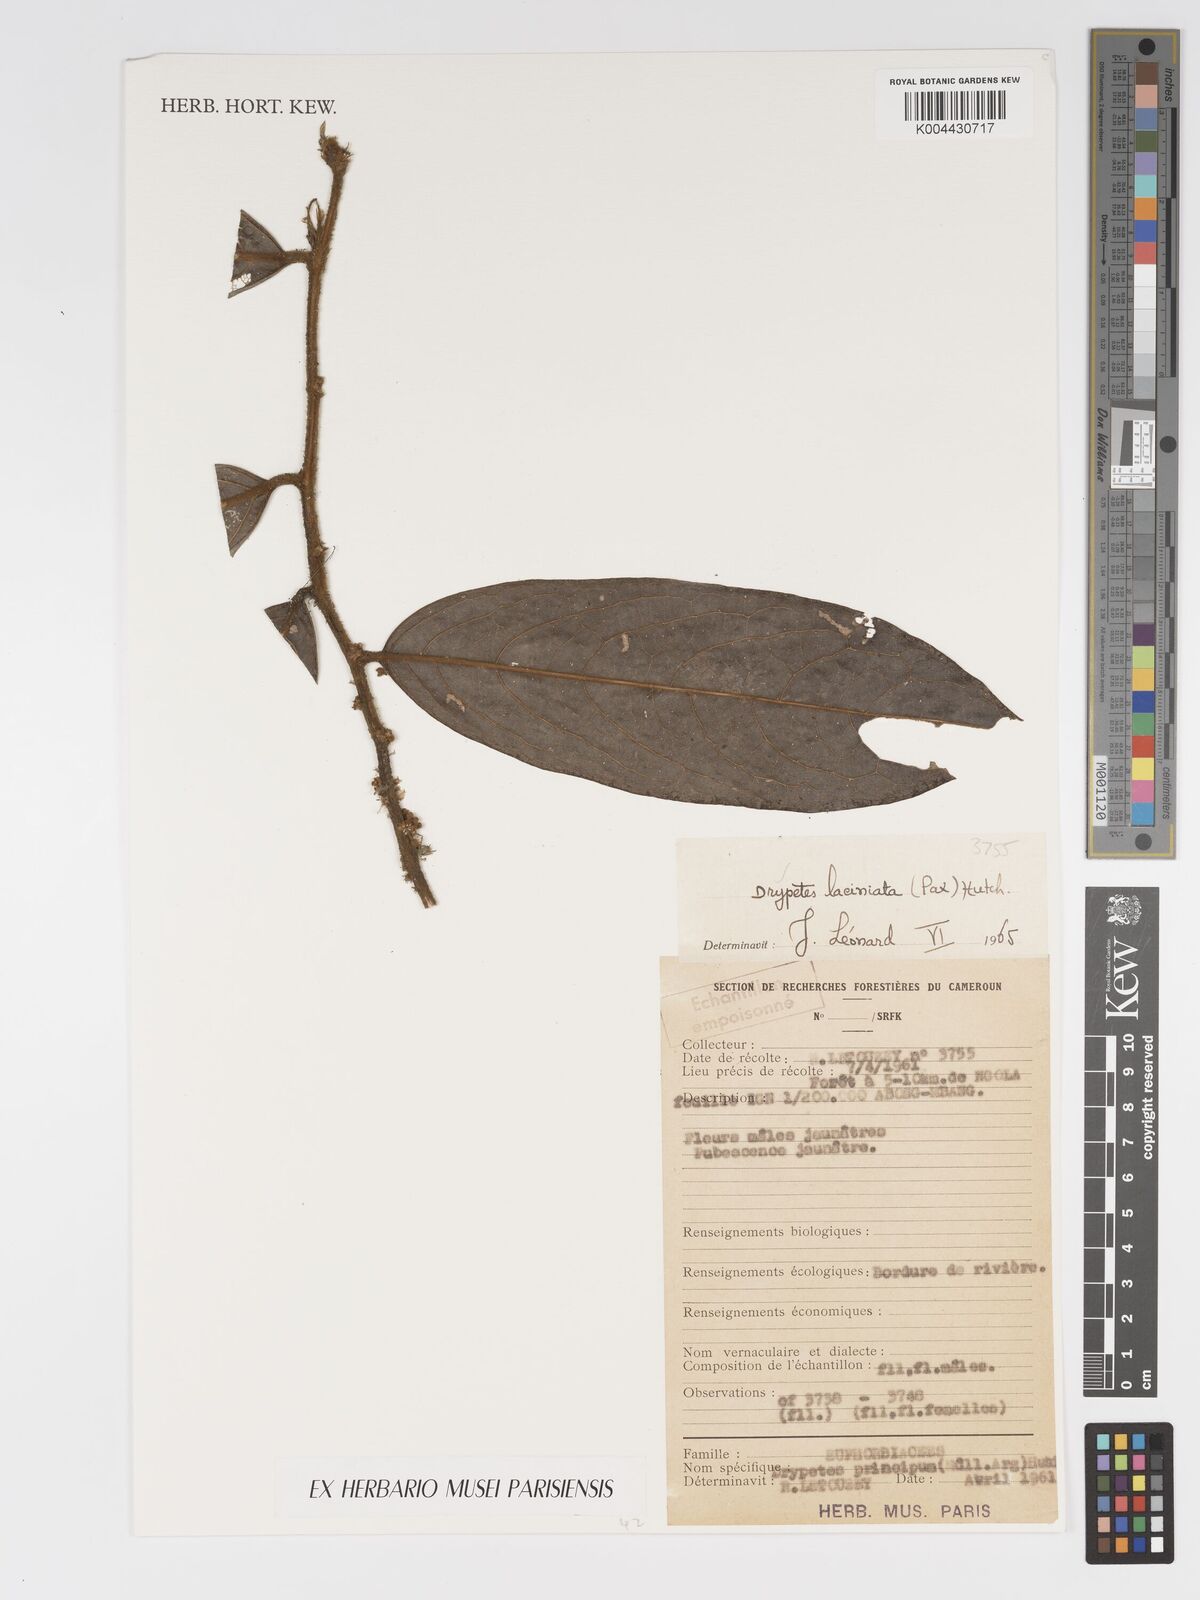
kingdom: Plantae
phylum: Tracheophyta
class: Magnoliopsida
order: Malpighiales
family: Putranjivaceae
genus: Drypetes
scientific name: Drypetes laciniata
